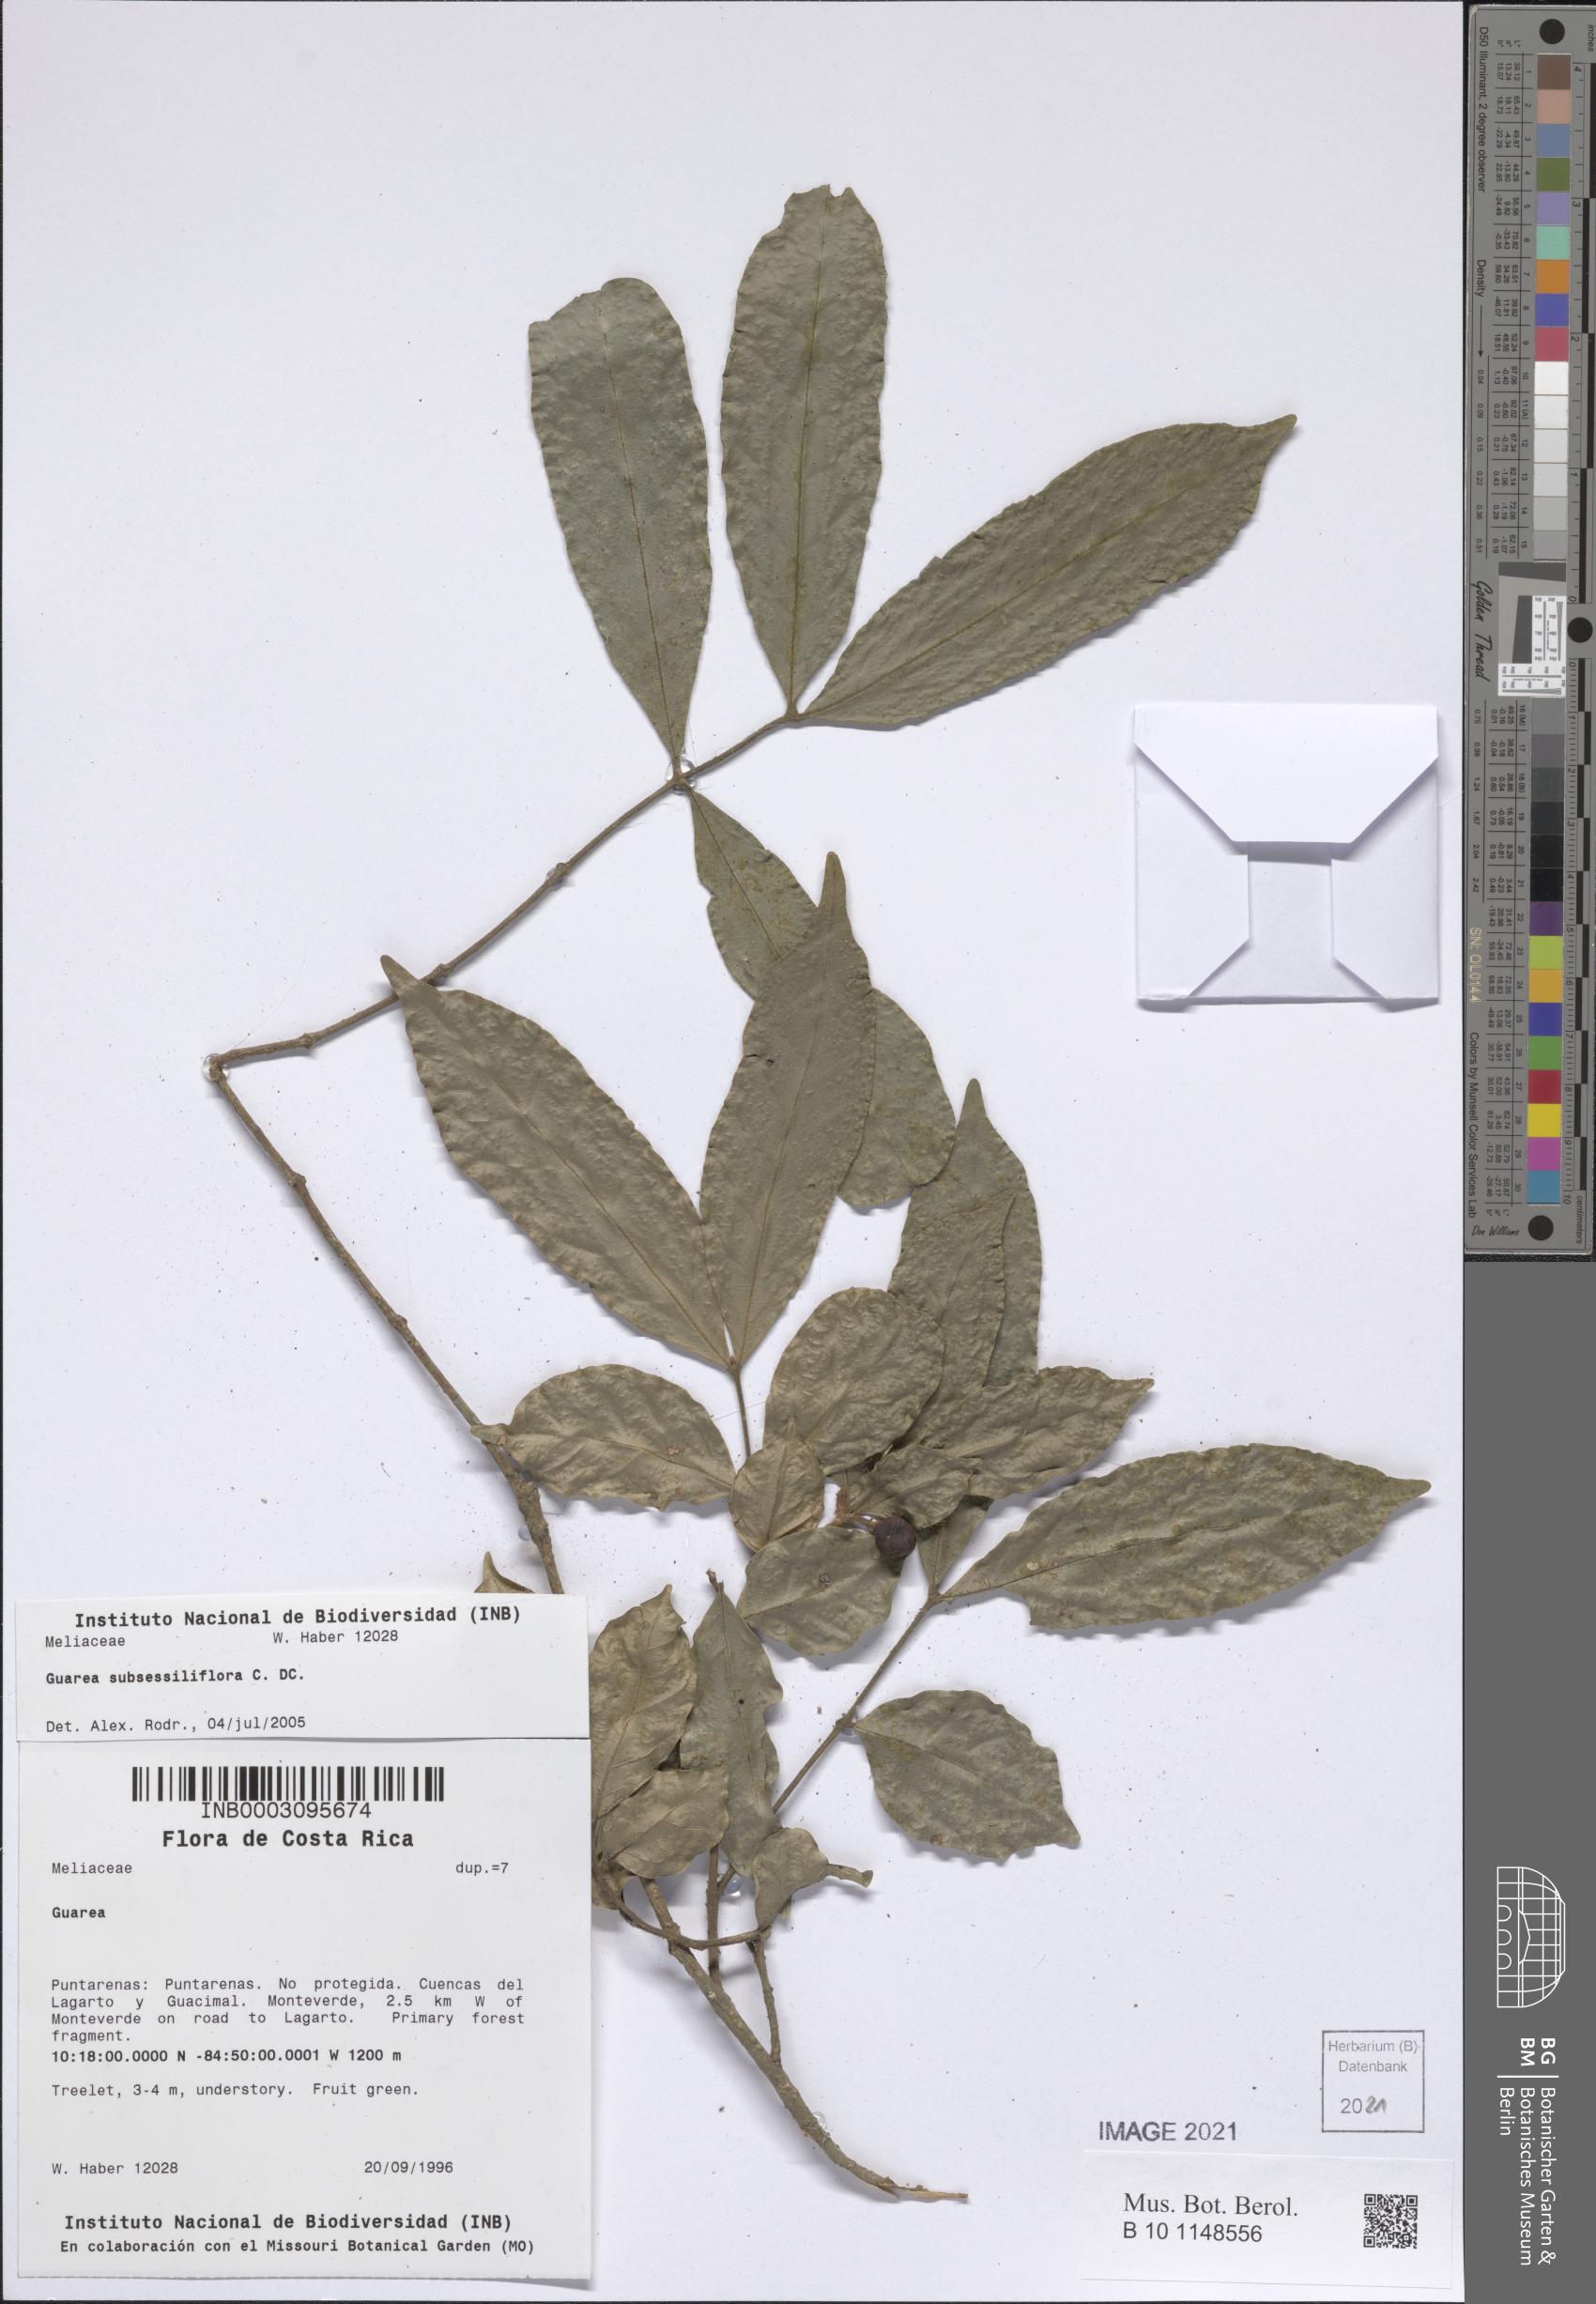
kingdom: Plantae
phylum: Tracheophyta
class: Magnoliopsida
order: Sapindales
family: Meliaceae
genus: Guarea
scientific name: Guarea subsessilifolia
